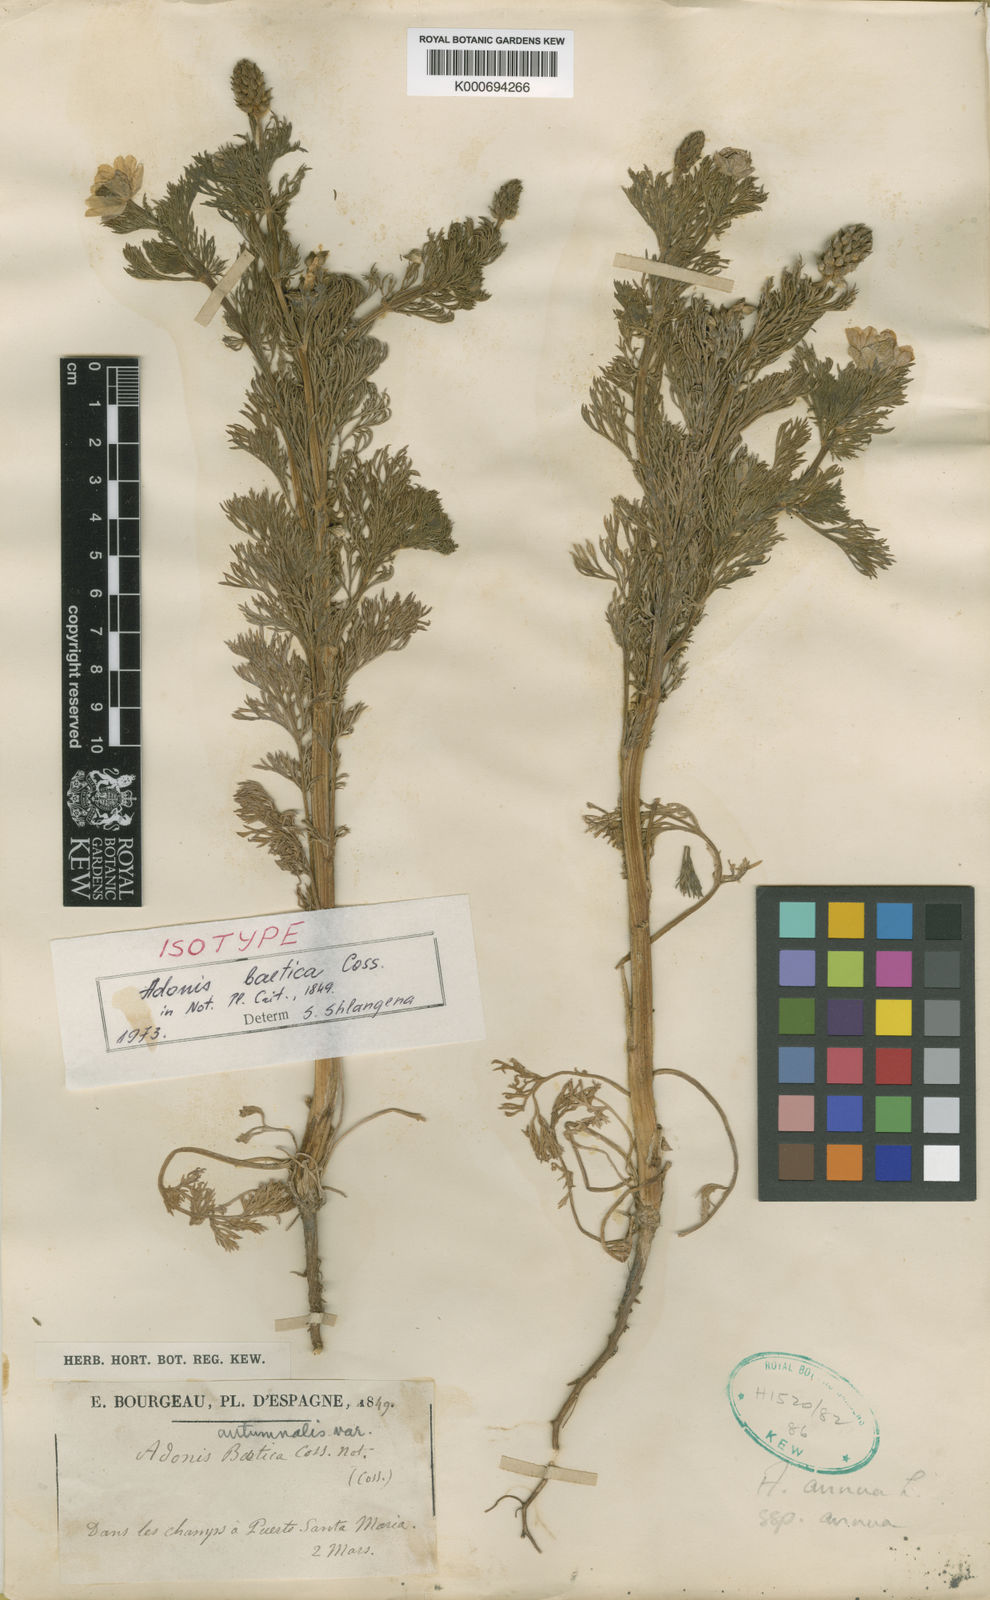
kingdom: Plantae
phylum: Tracheophyta
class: Magnoliopsida
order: Ranunculales
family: Ranunculaceae
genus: Adonis
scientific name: Adonis annua
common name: Pheasant's-eye
